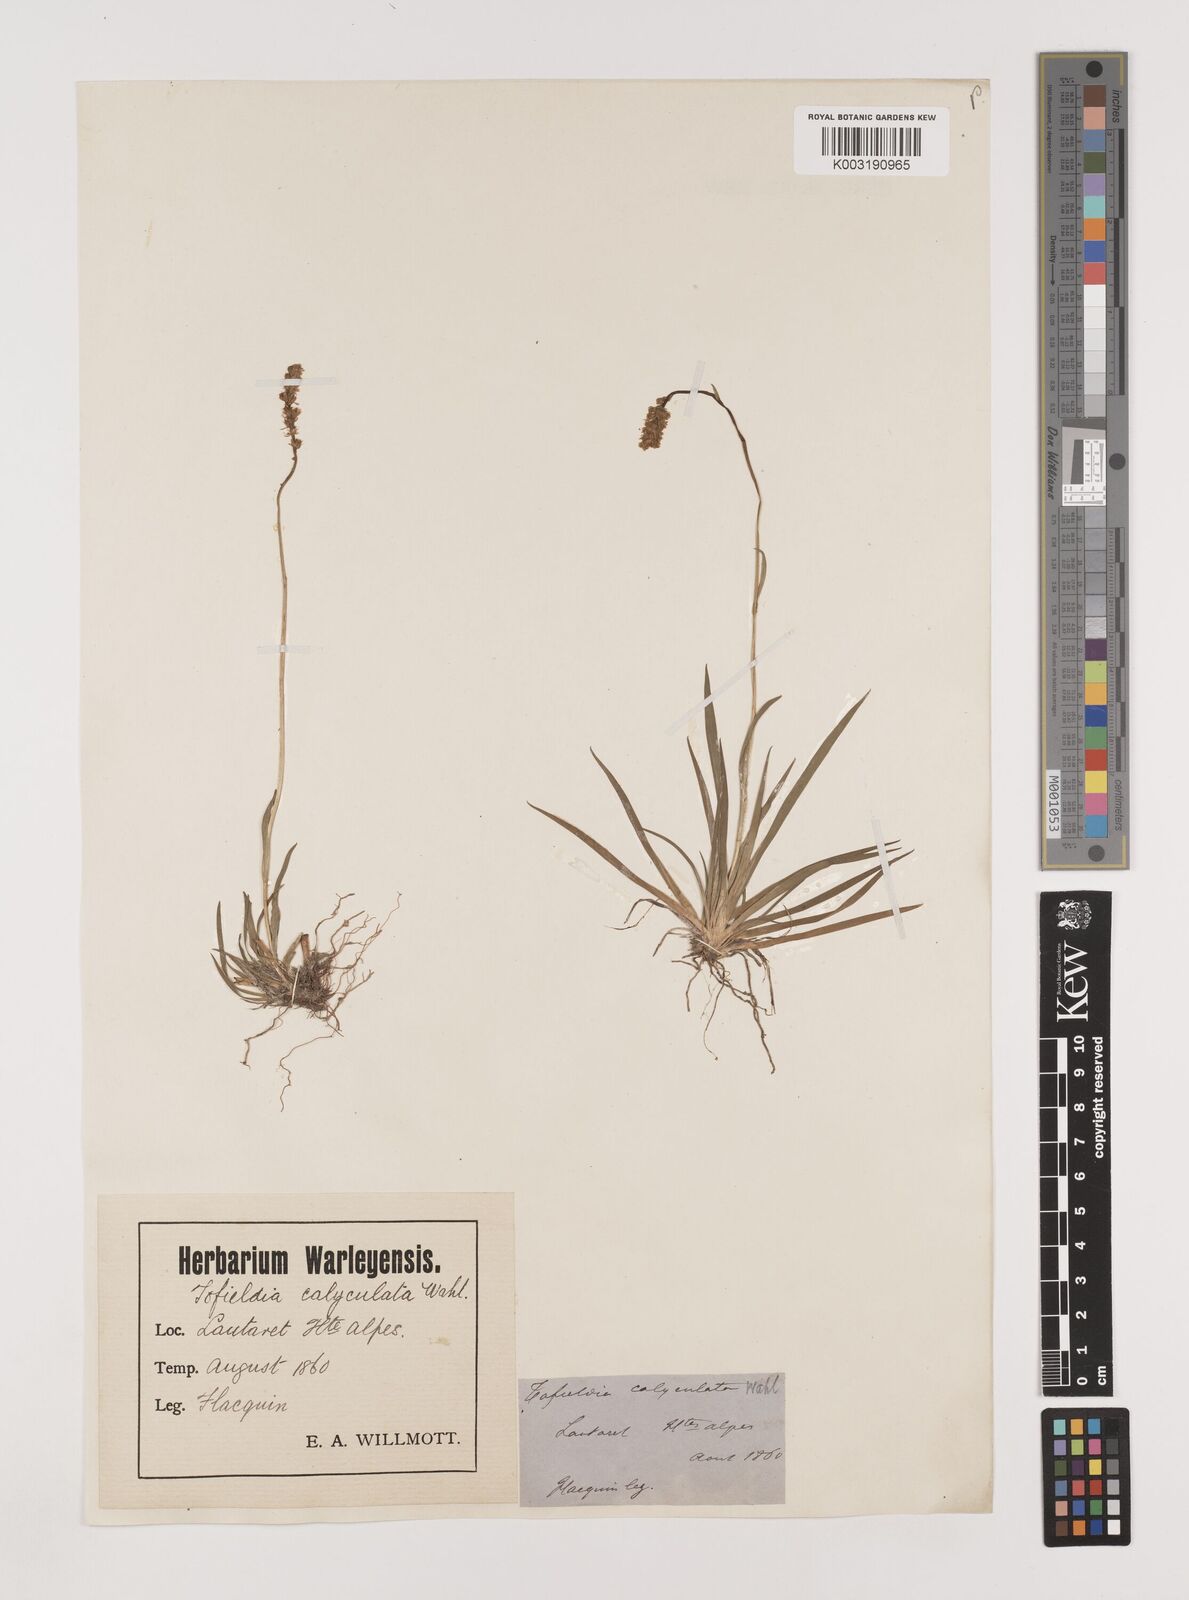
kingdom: Plantae
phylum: Tracheophyta
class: Liliopsida
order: Alismatales
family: Tofieldiaceae
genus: Tofieldia
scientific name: Tofieldia calyculata
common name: German-asphodel
